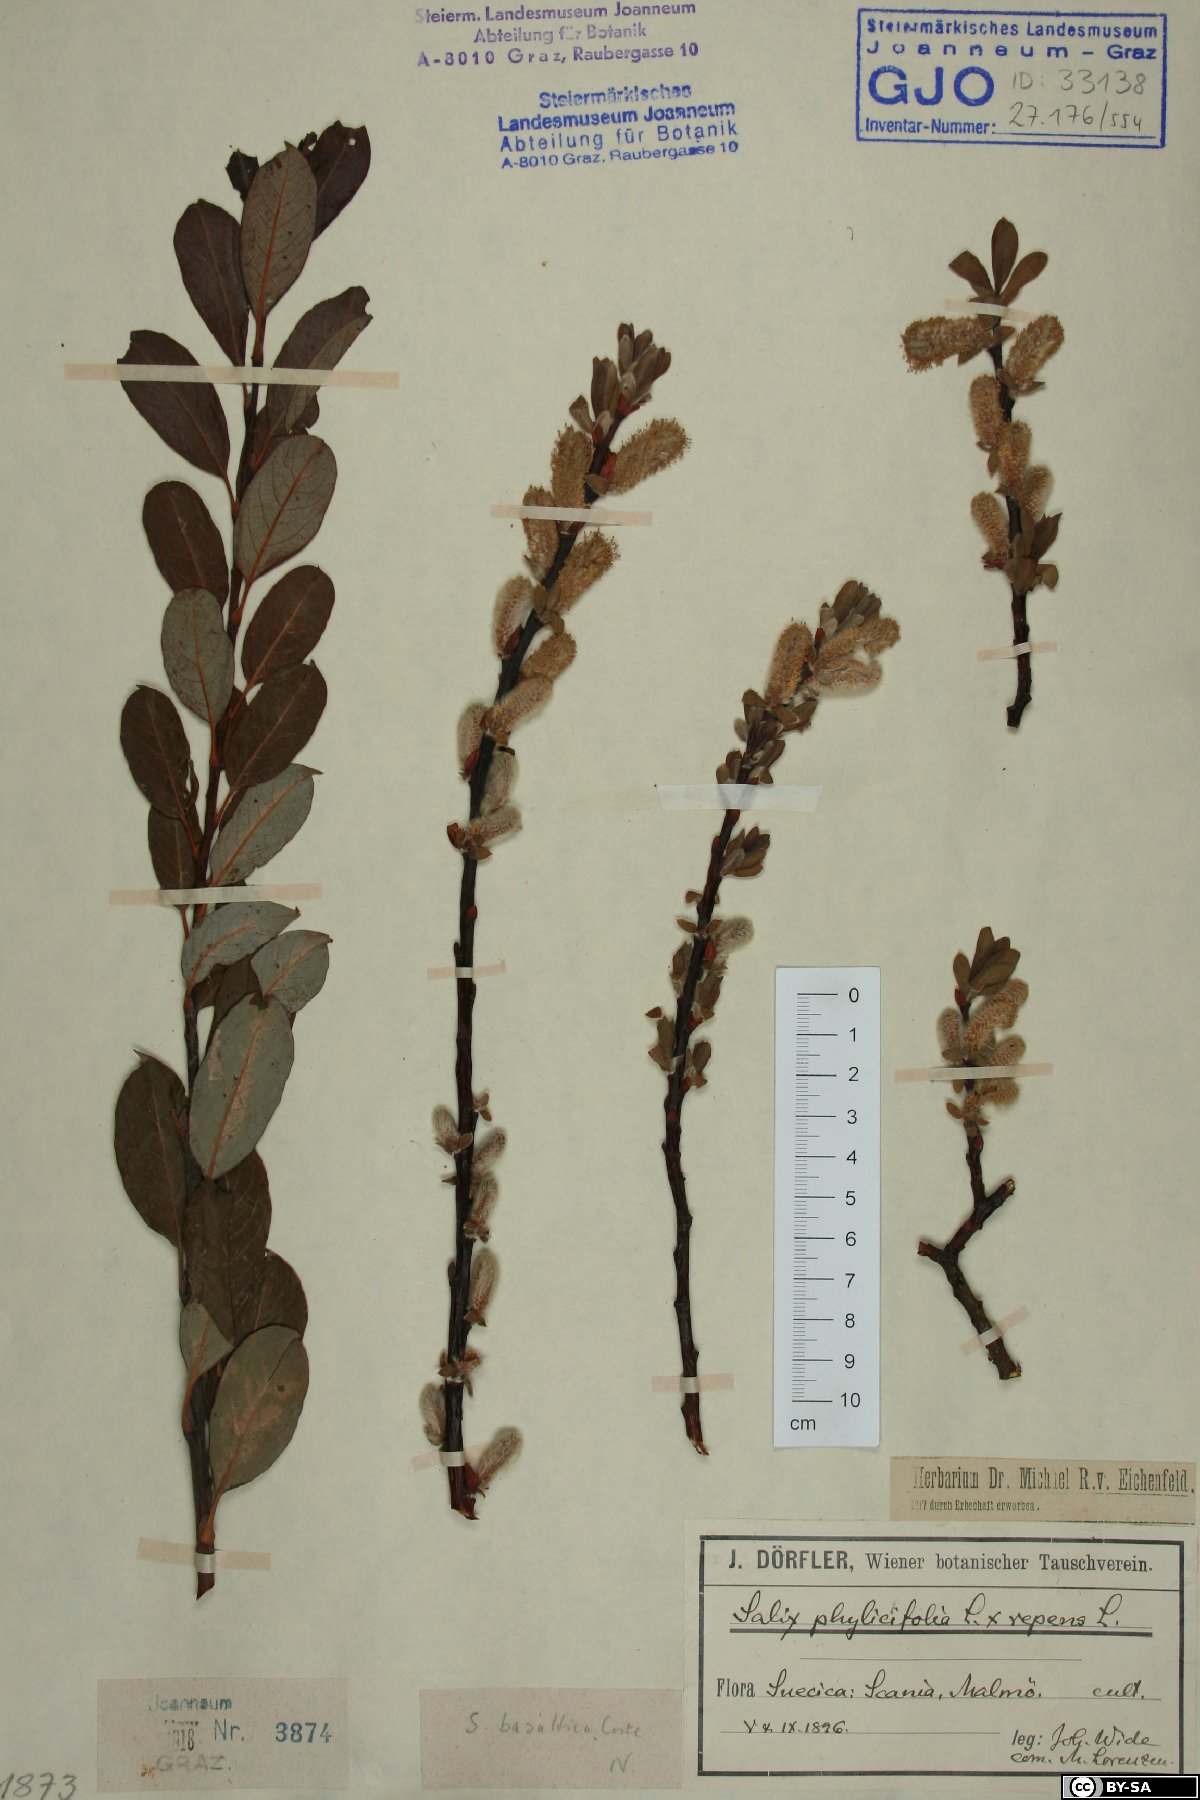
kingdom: Plantae
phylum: Tracheophyta
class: Magnoliopsida
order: Malpighiales
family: Salicaceae
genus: Salix
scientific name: Salix basaltica
